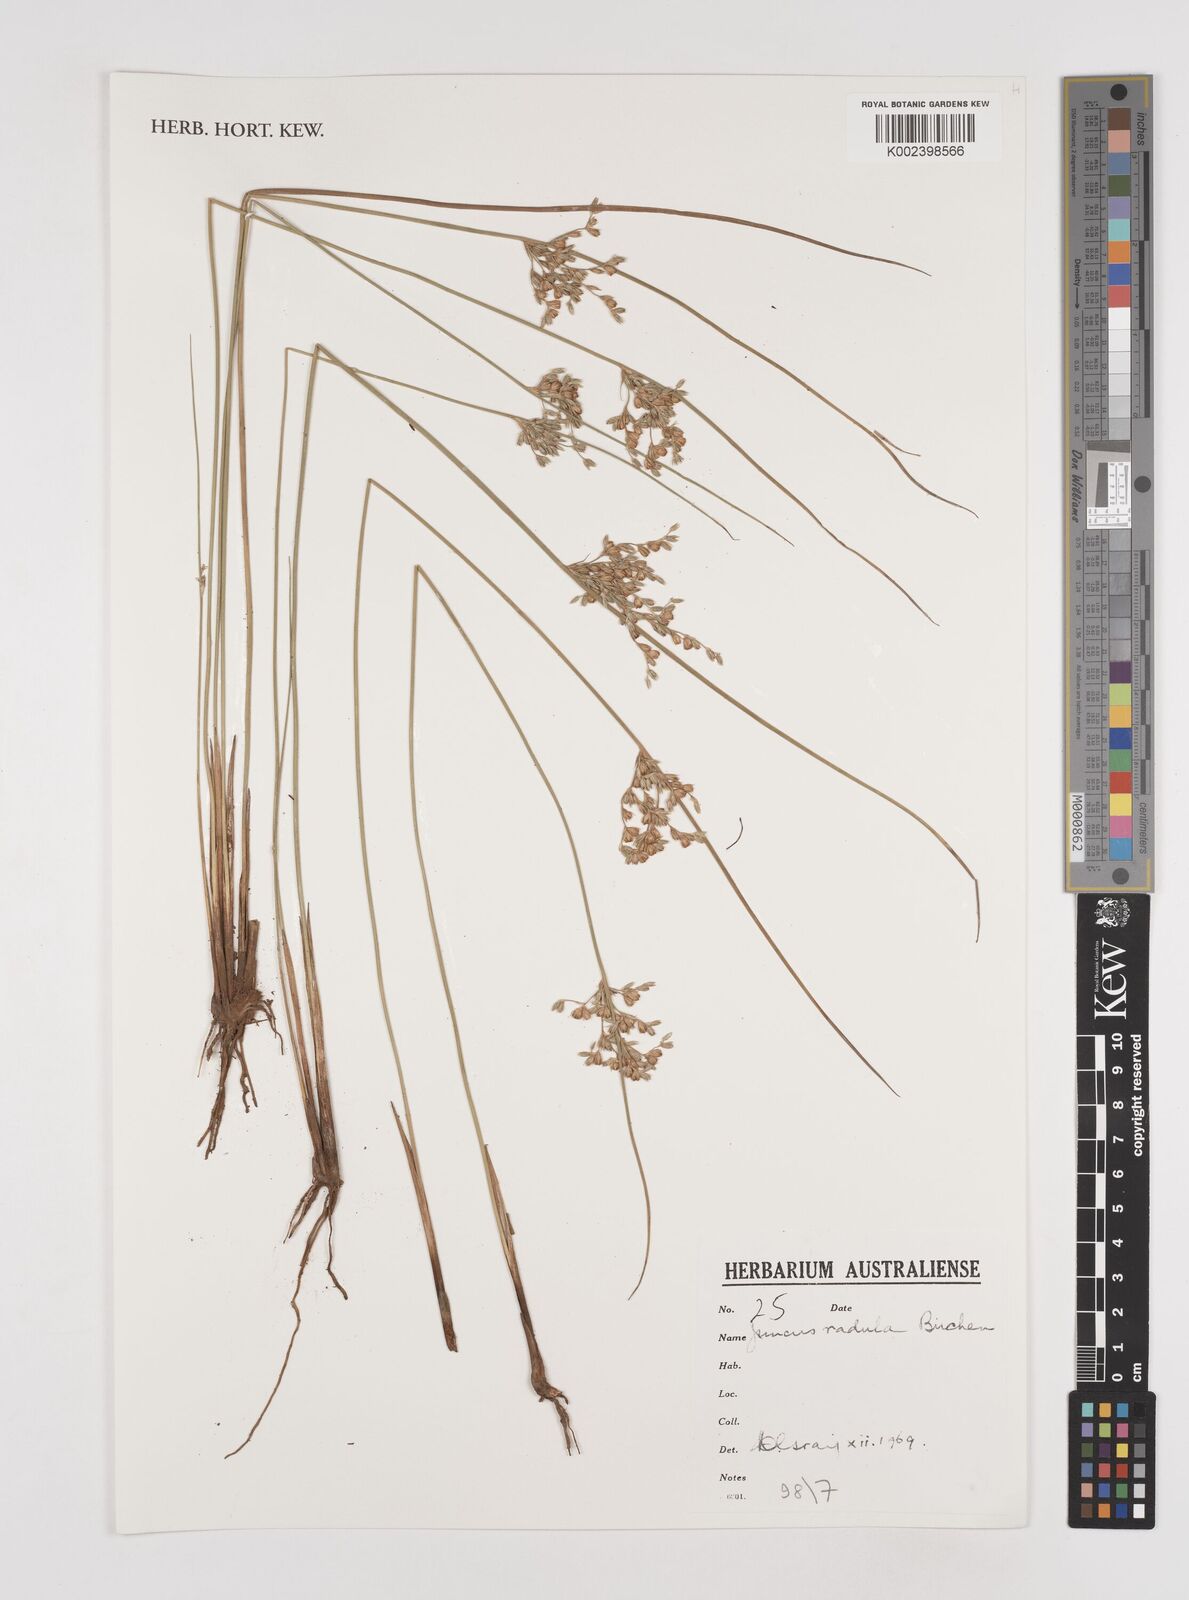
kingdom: Plantae
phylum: Tracheophyta
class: Liliopsida
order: Poales
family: Juncaceae
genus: Juncus
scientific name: Juncus radula
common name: Hoary rush
